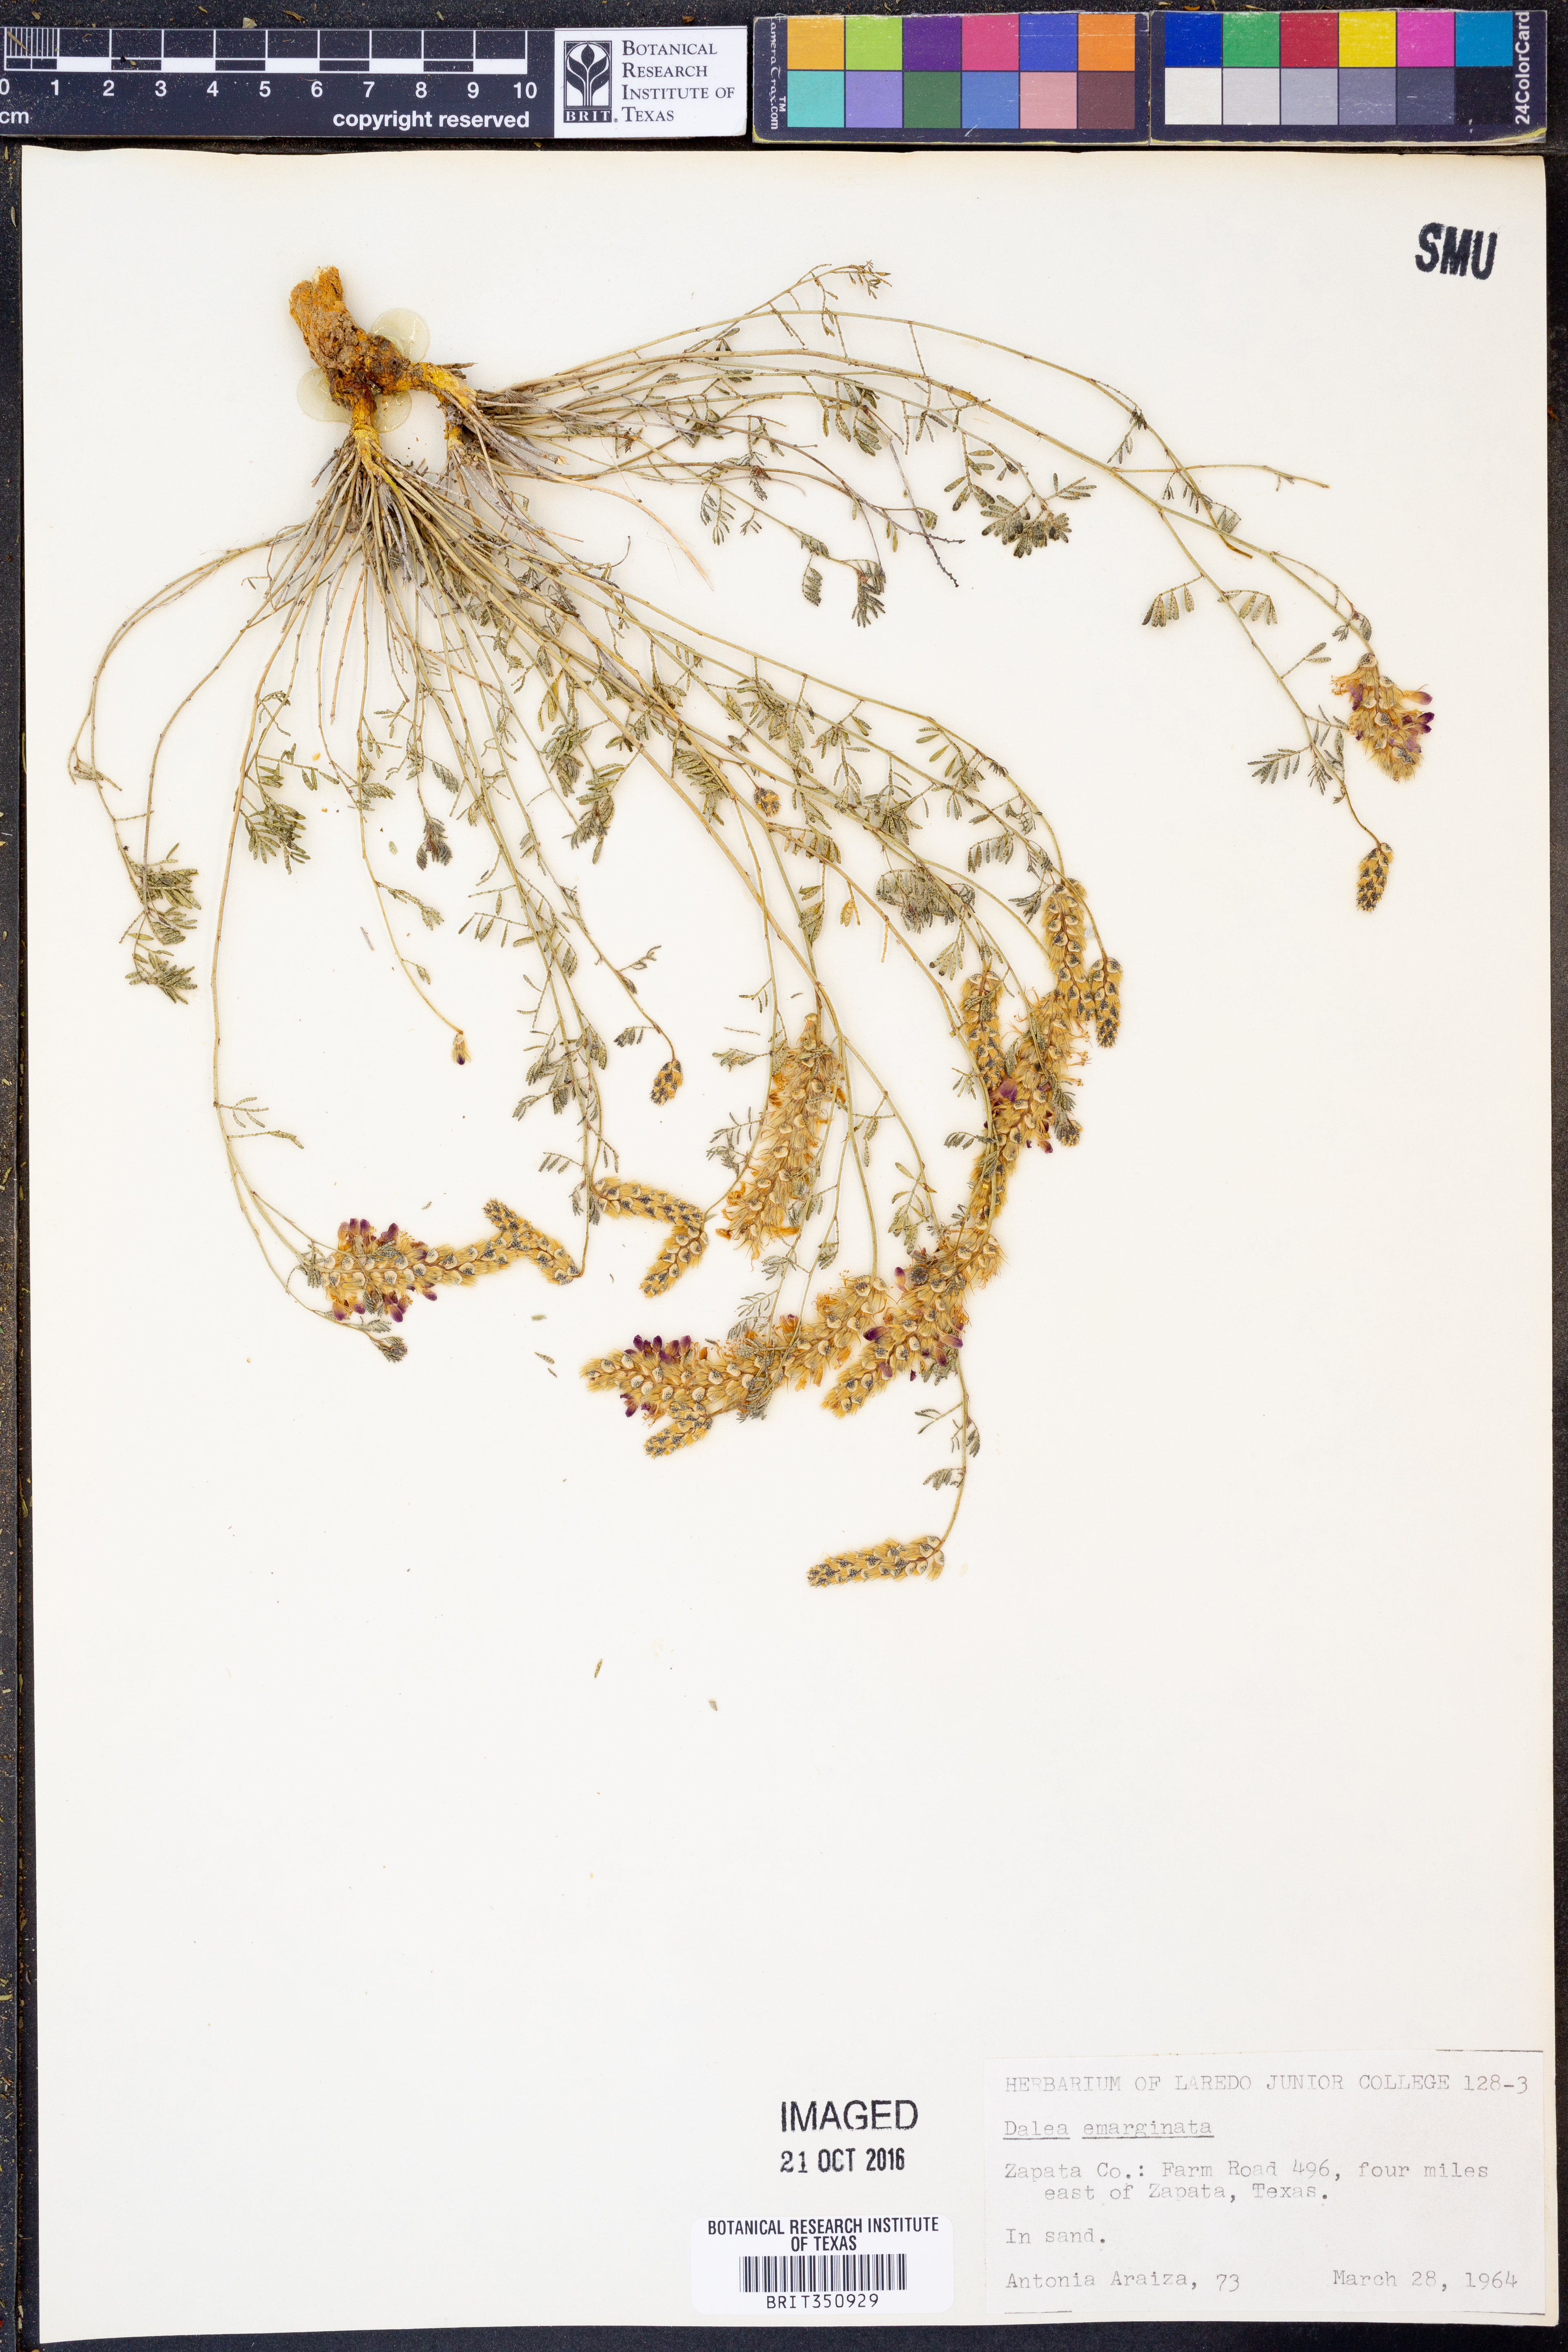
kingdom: Plantae
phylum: Tracheophyta
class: Magnoliopsida
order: Fabales
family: Fabaceae
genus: Dalea
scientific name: Dalea emarginata
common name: Wedgeleaf prairie clover
